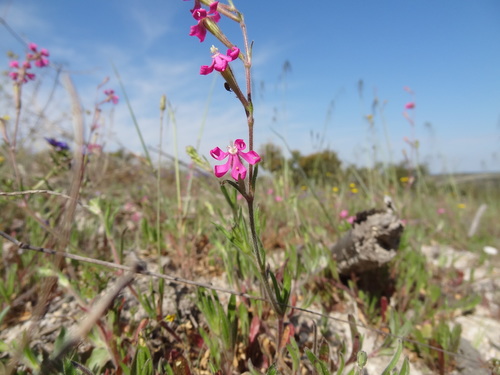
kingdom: Plantae
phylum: Tracheophyta
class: Magnoliopsida
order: Caryophyllales
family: Caryophyllaceae
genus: Silene
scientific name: Silene scabriflora
